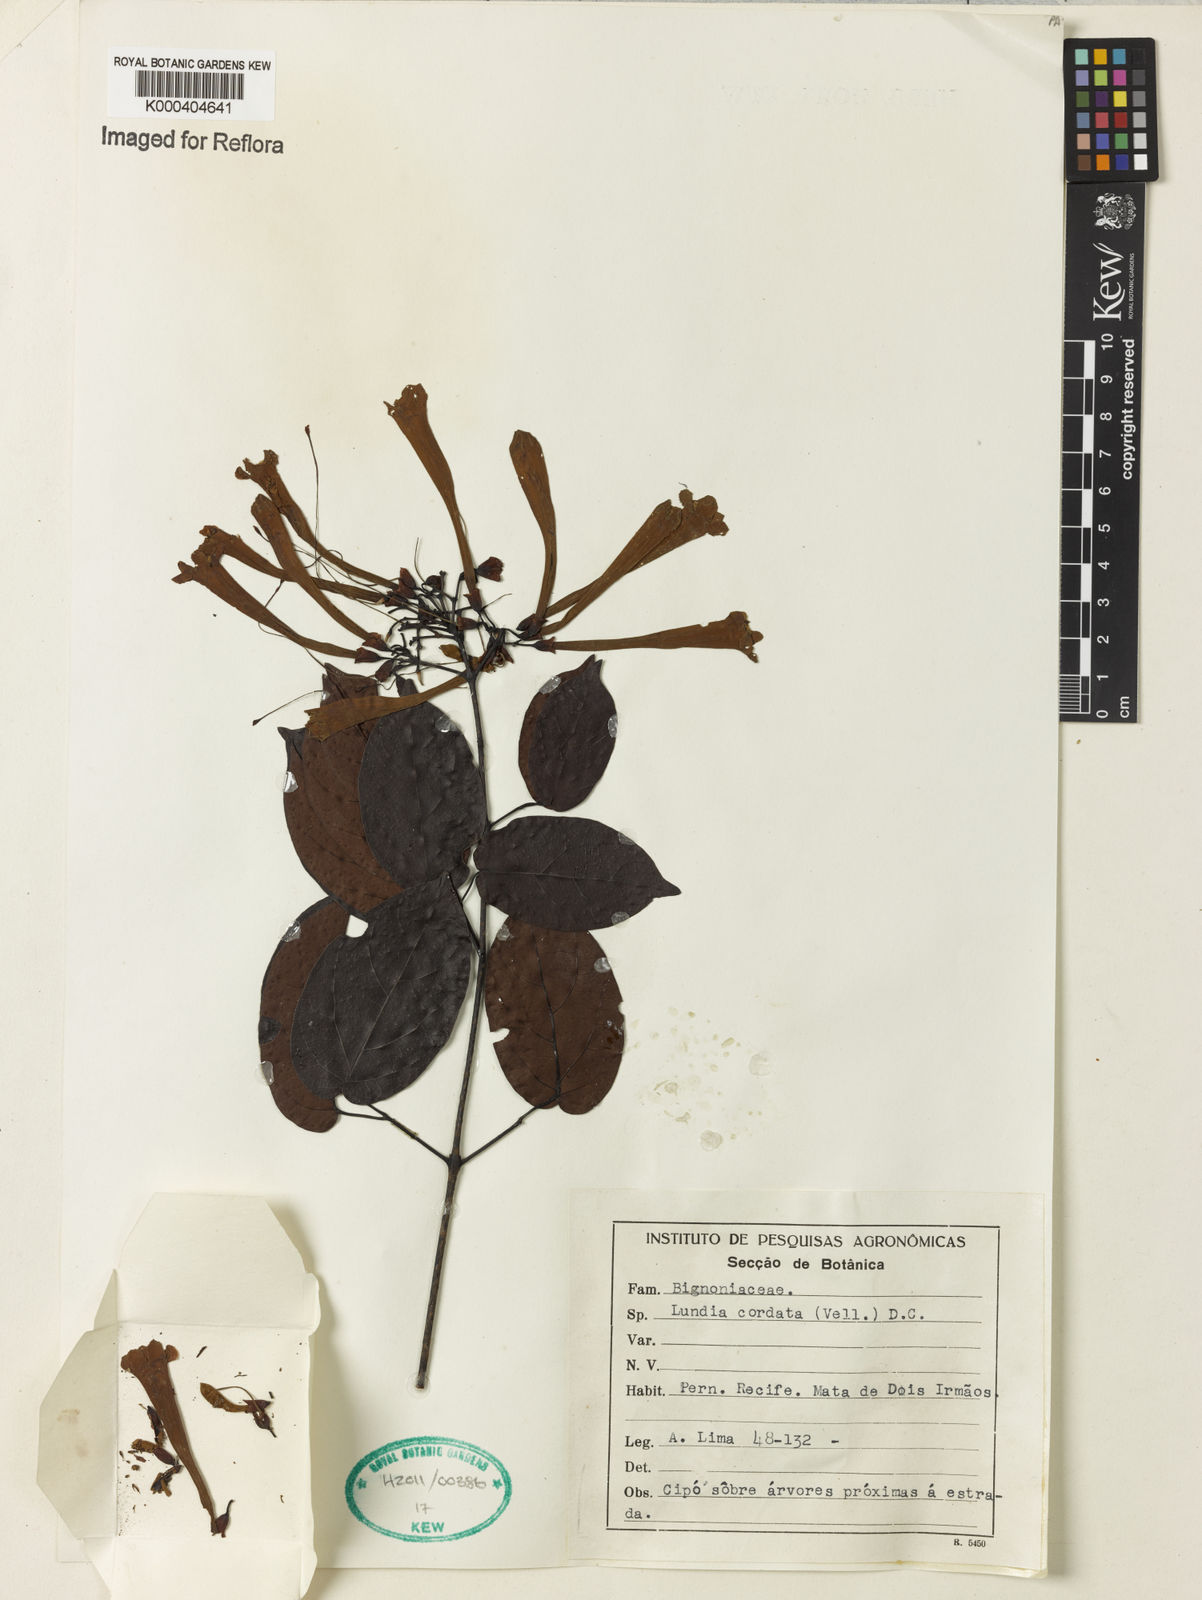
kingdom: Plantae
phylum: Tracheophyta
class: Magnoliopsida
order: Lamiales
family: Bignoniaceae
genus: Lundia
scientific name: Lundia corymbifera
